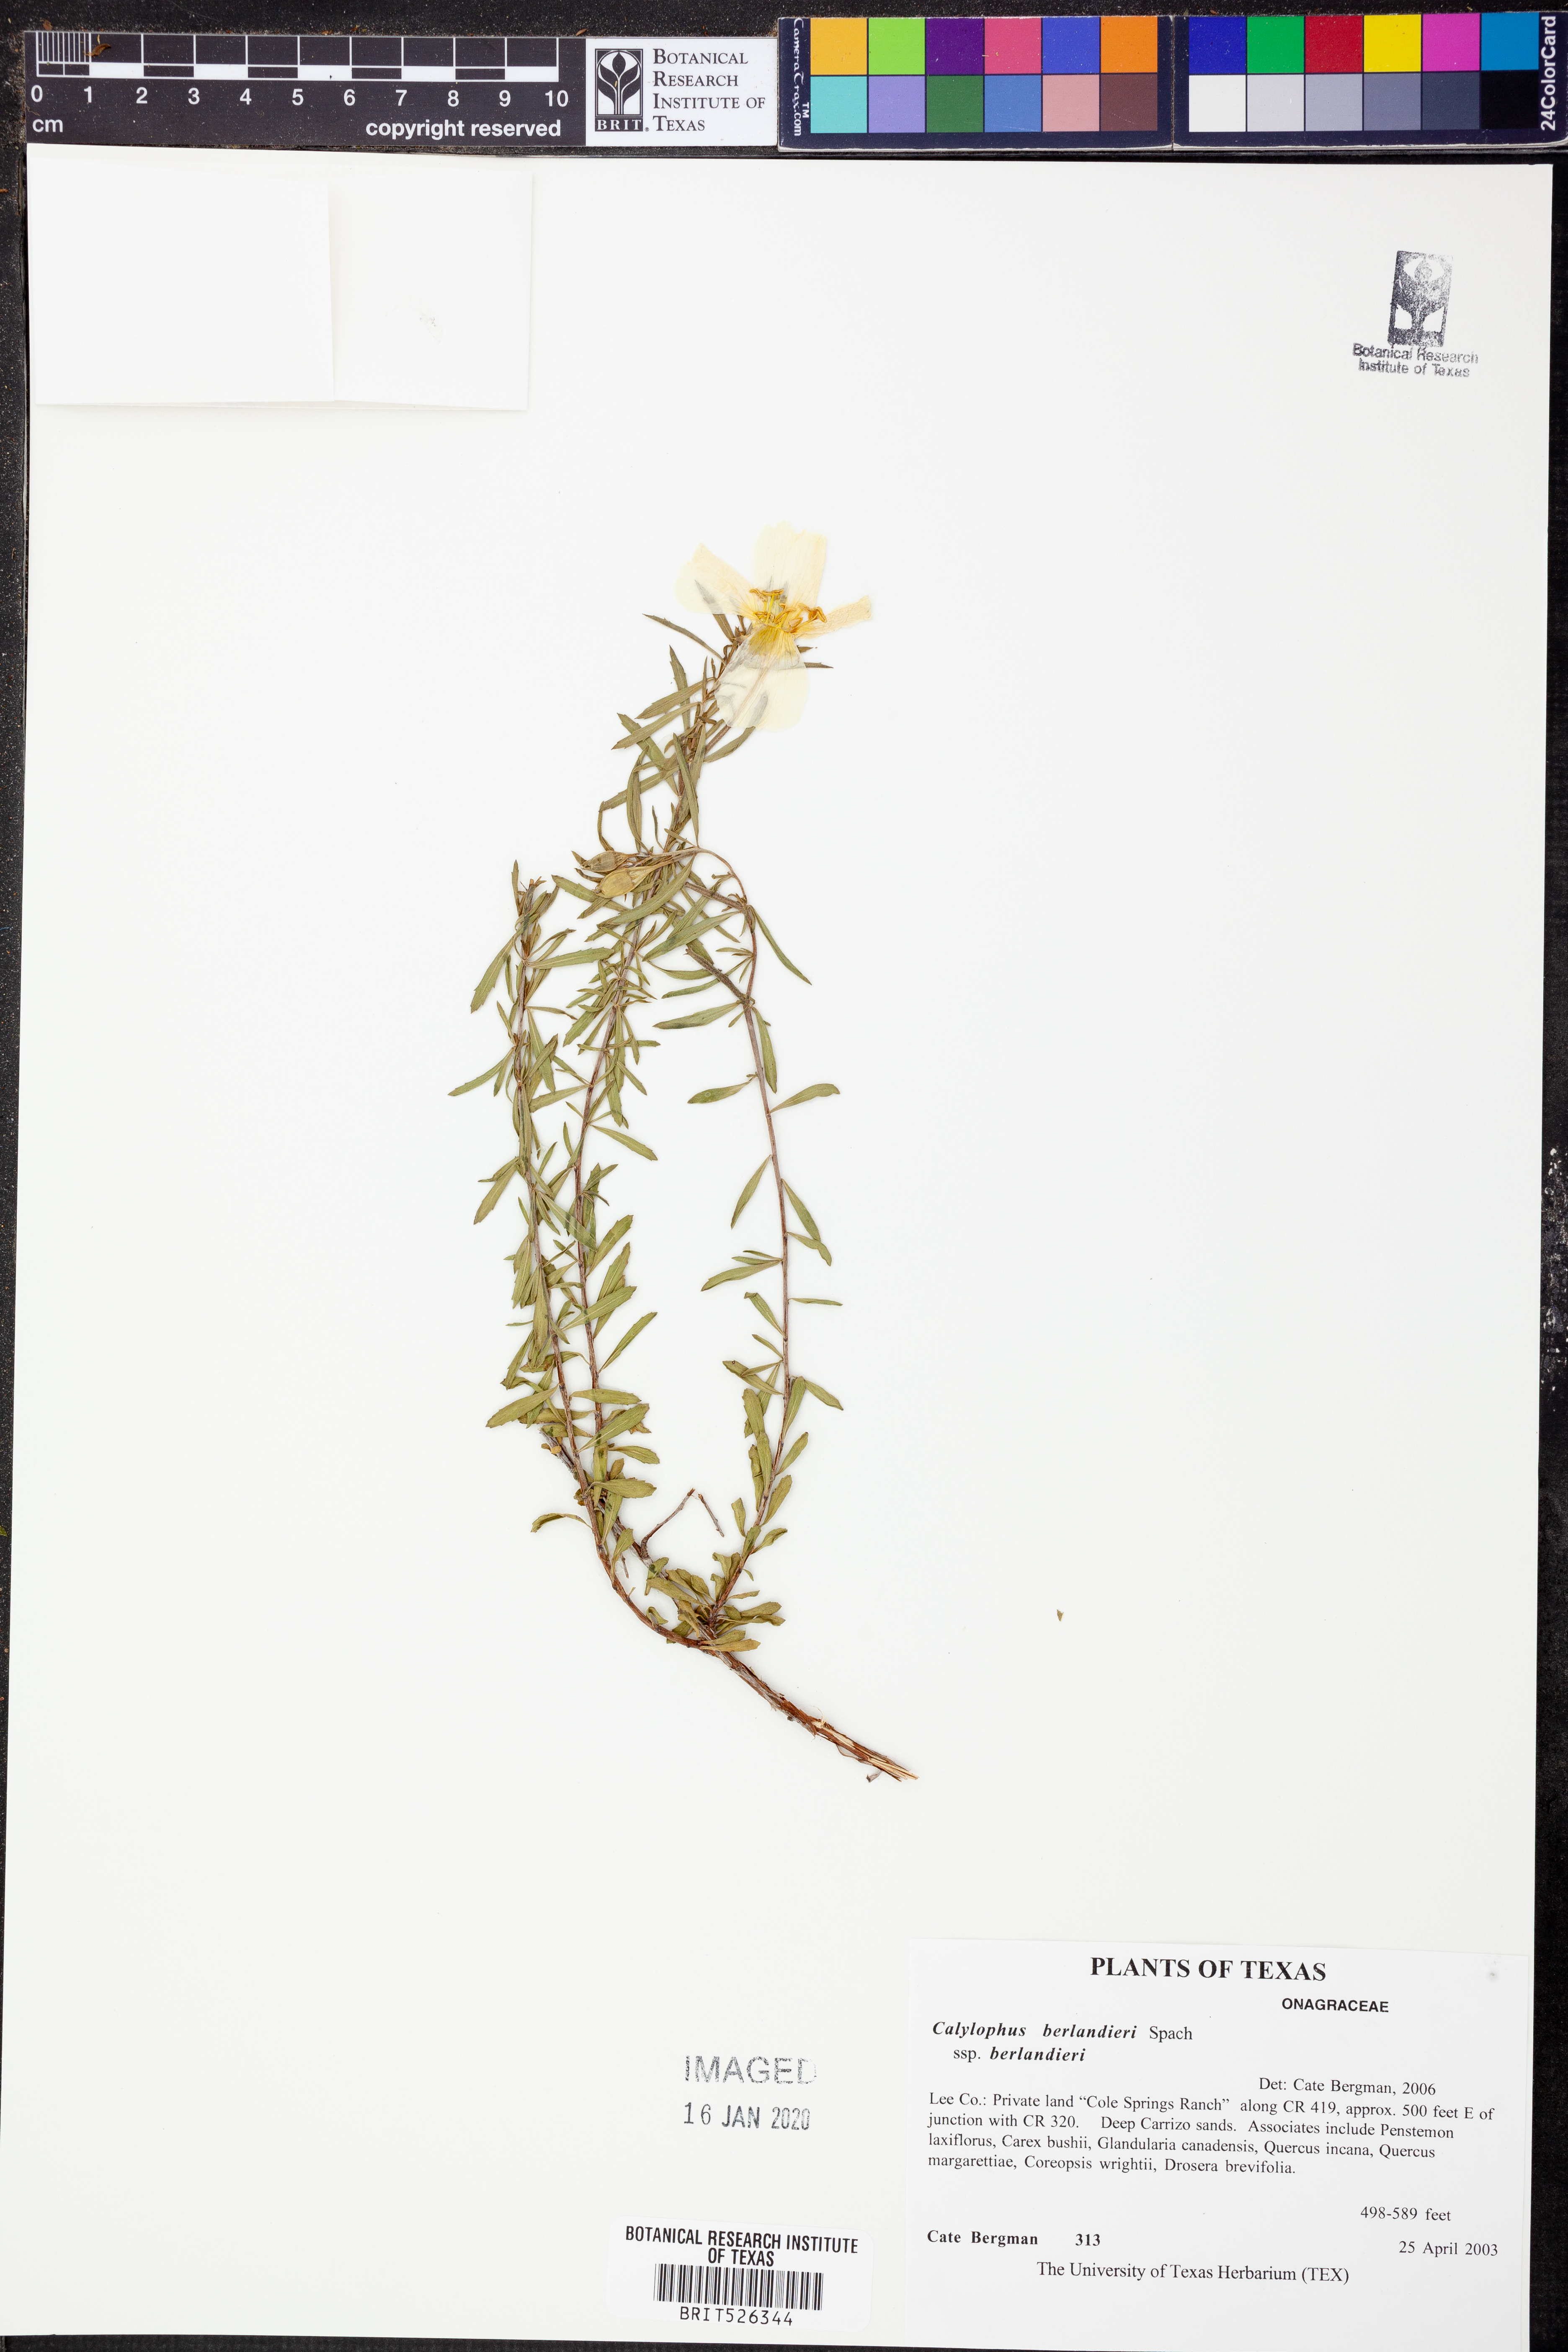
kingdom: Plantae
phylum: Tracheophyta
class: Magnoliopsida
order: Myrtales
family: Onagraceae
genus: Oenothera
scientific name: Oenothera capillifolia
